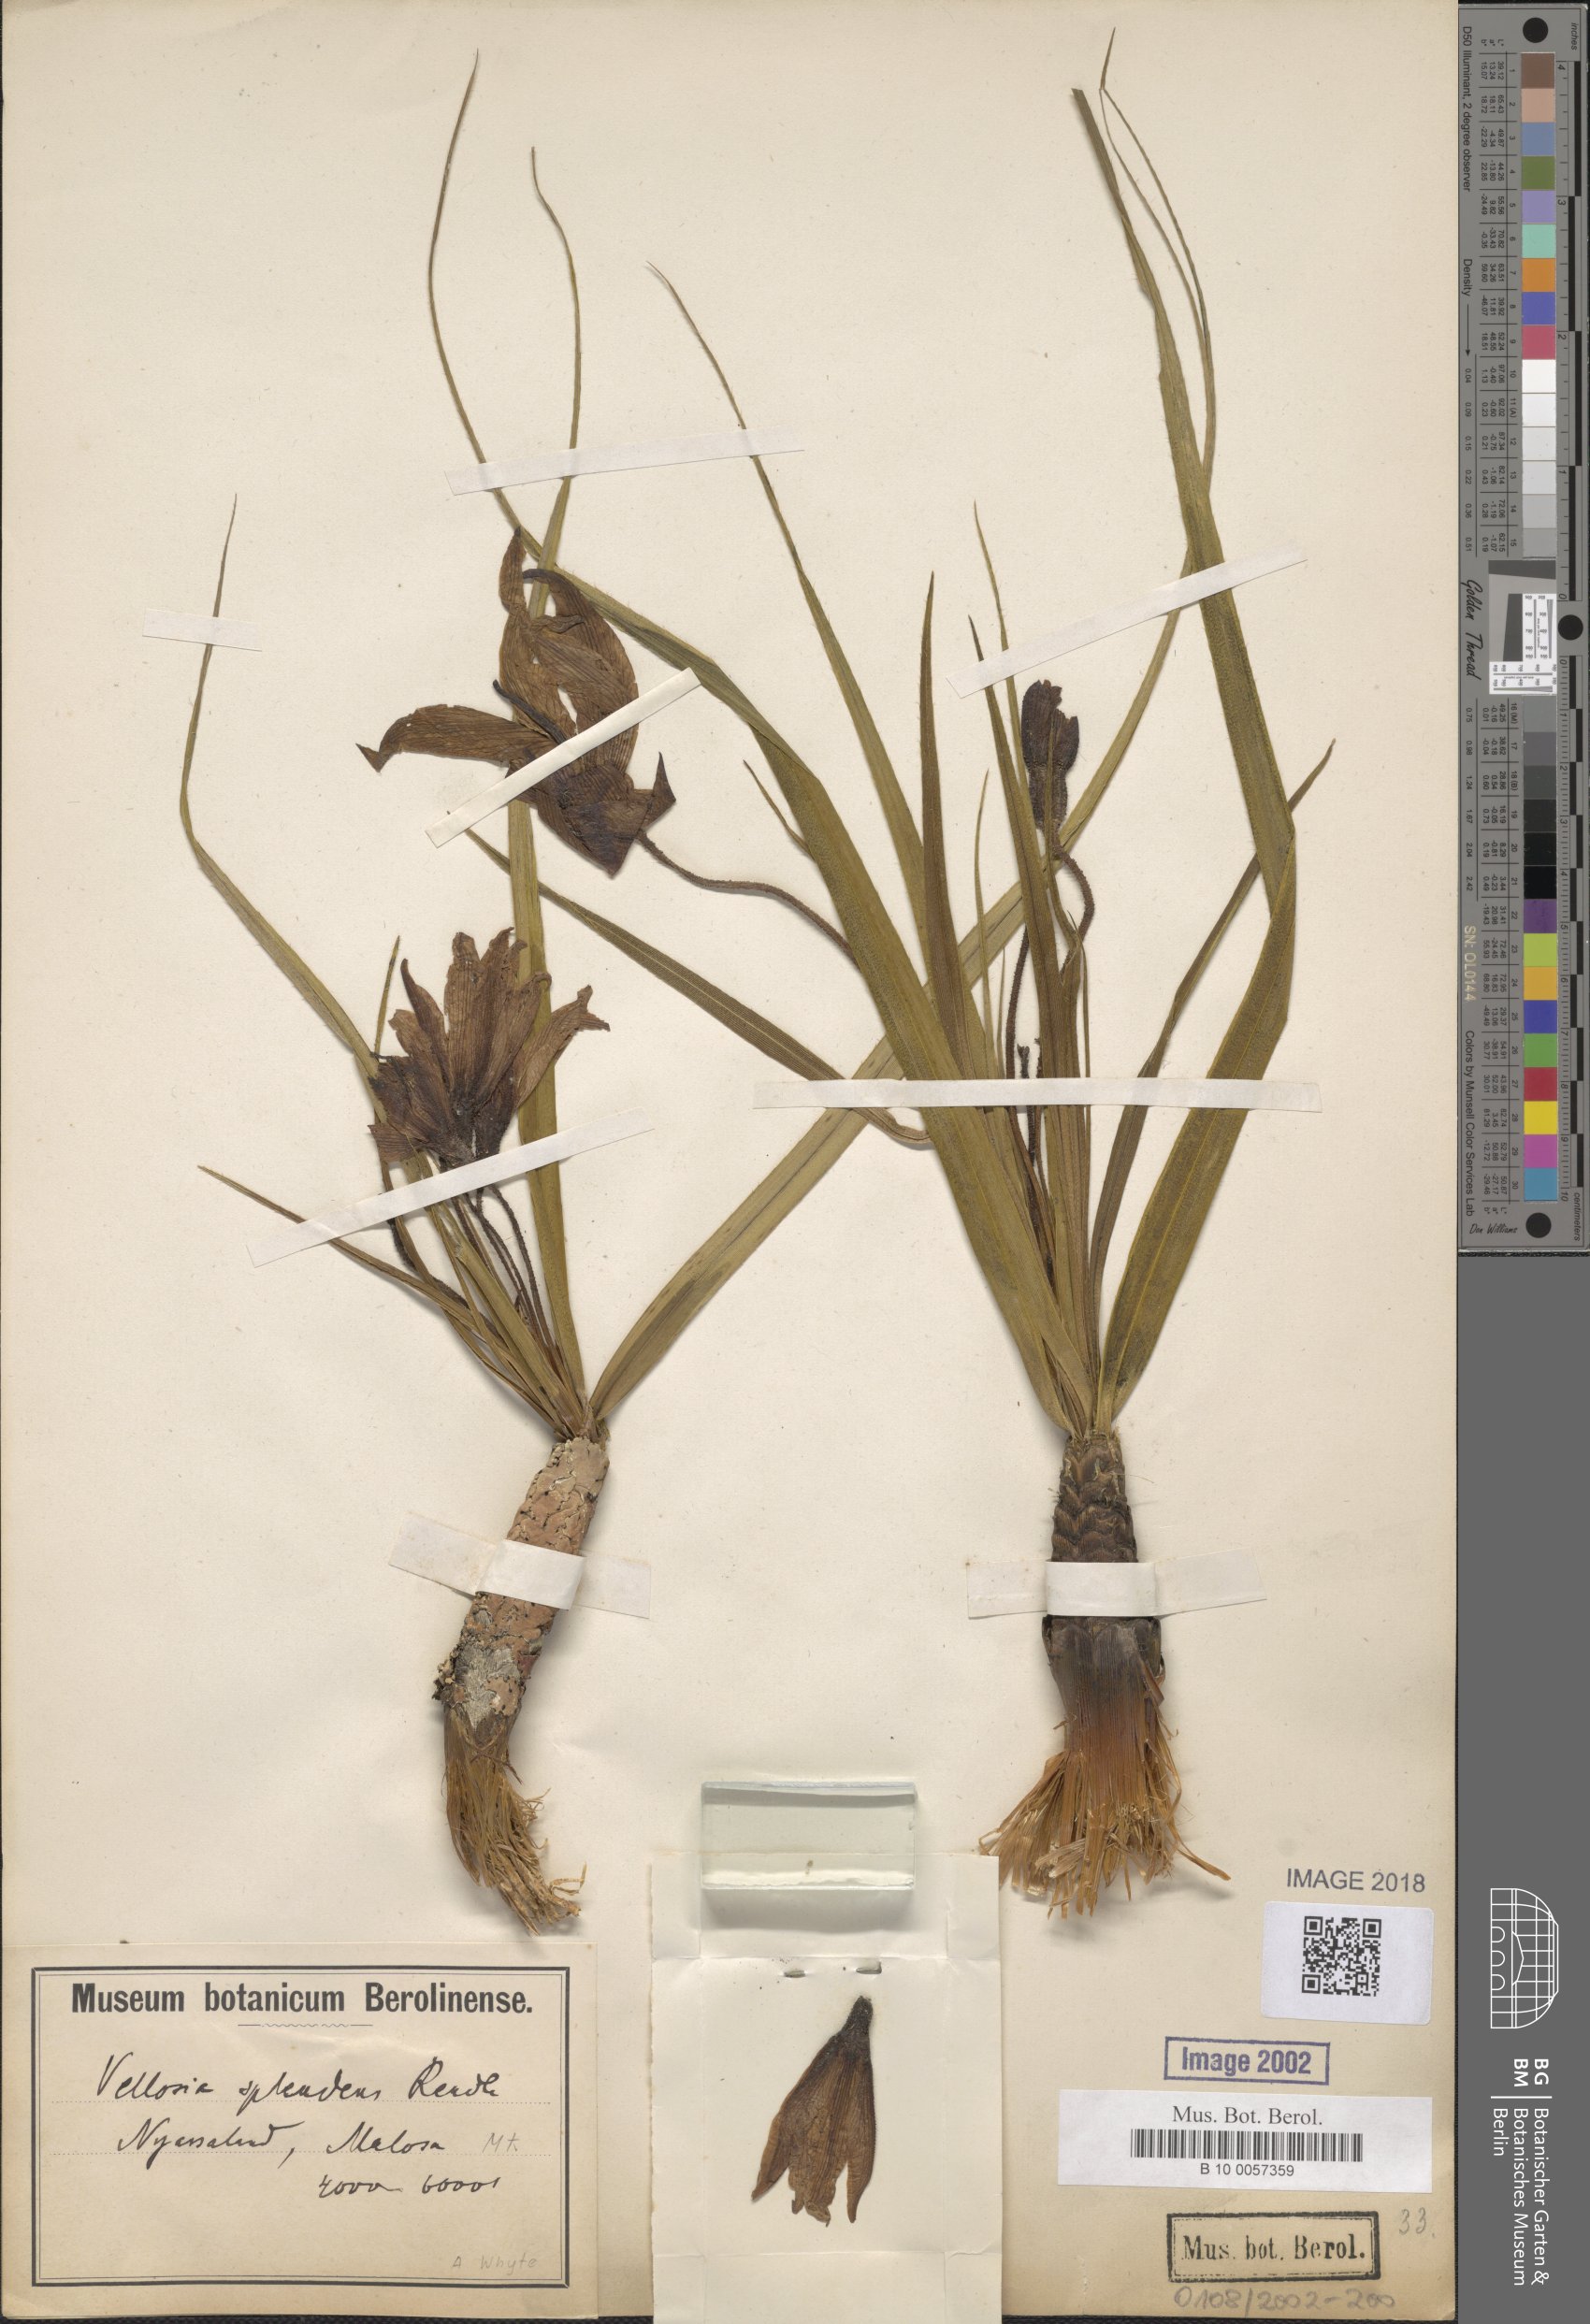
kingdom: Plantae
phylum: Tracheophyta
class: Liliopsida
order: Pandanales
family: Velloziaceae
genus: Xerophyta
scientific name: Xerophyta splendens
